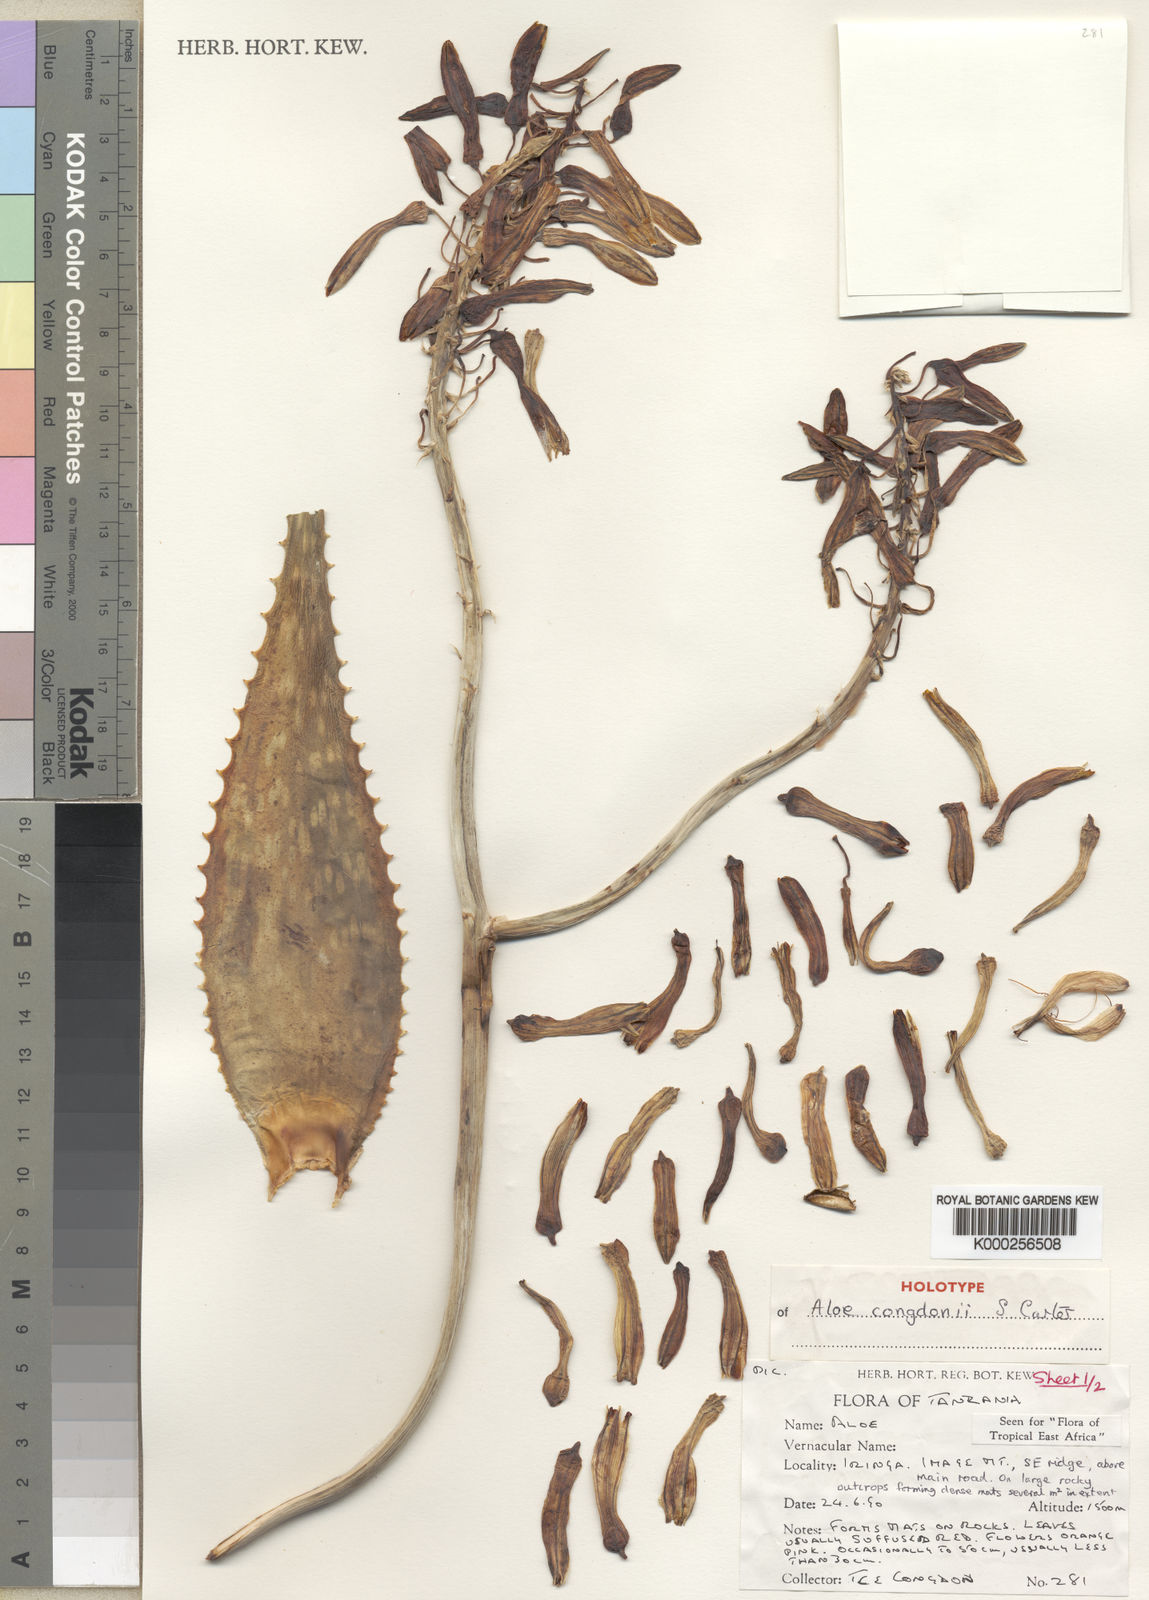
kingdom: Plantae
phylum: Tracheophyta
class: Liliopsida
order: Asparagales
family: Asphodelaceae
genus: Aloe
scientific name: Aloe congdonii
